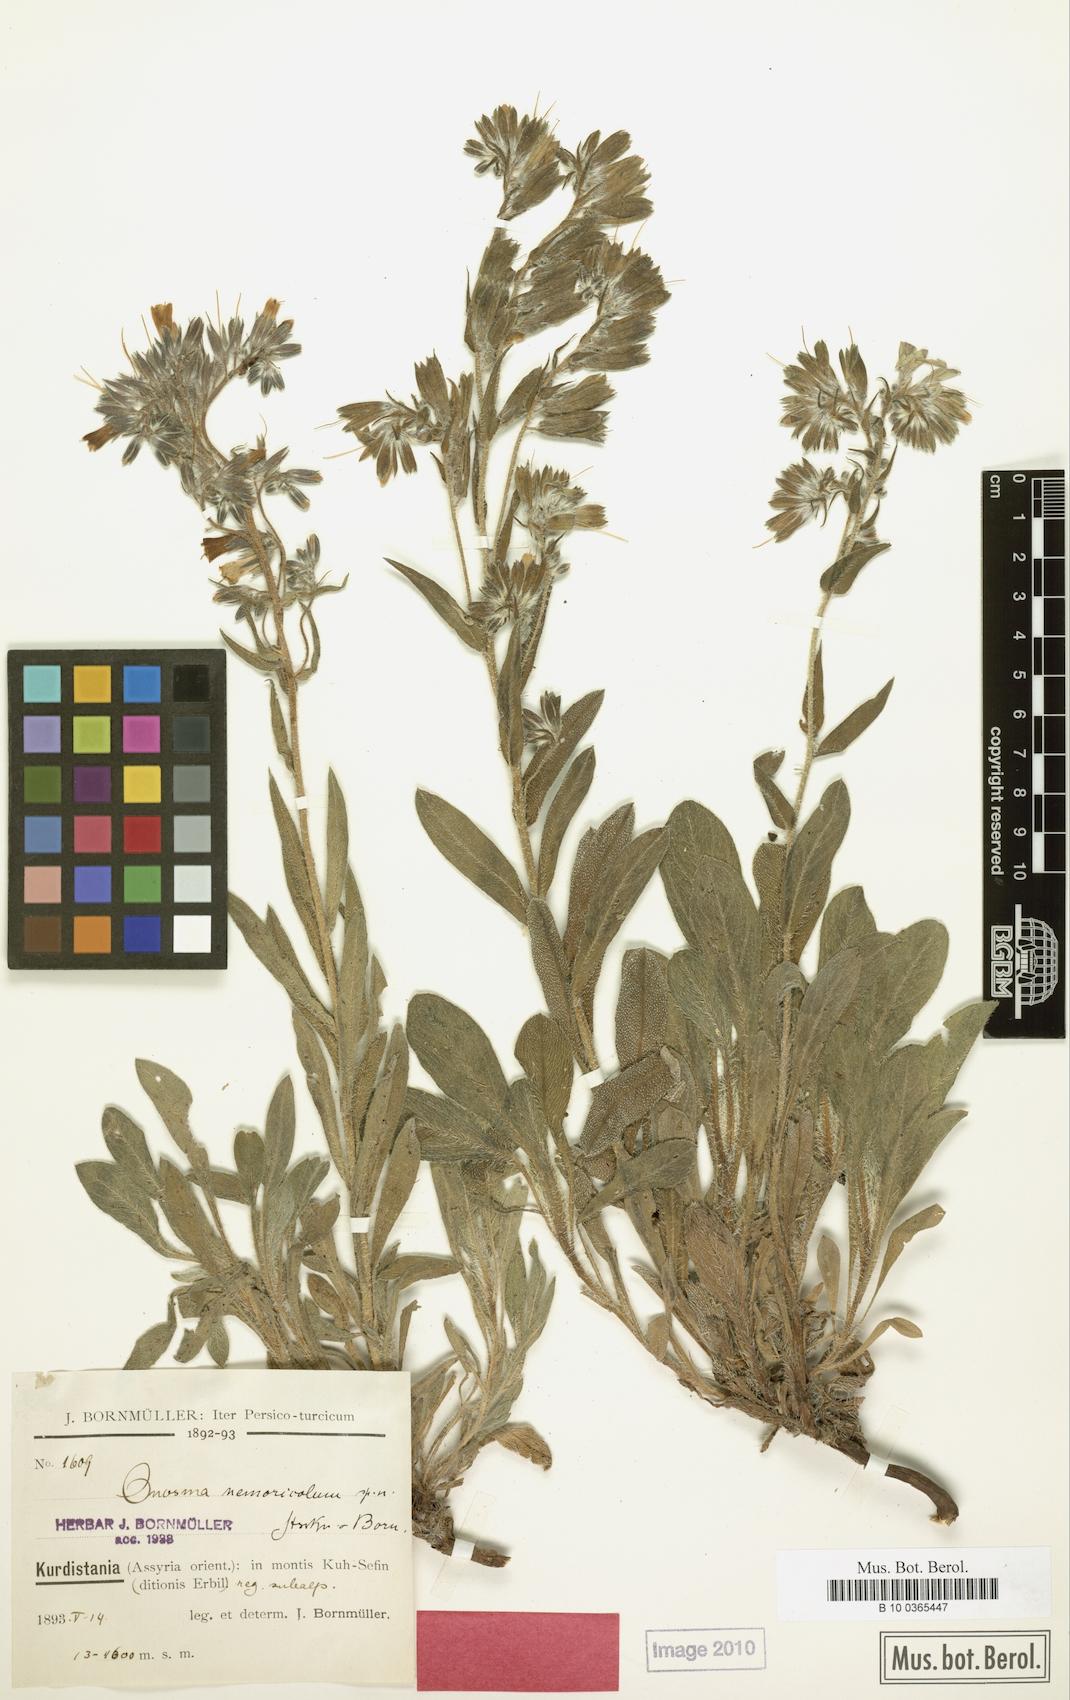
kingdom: Plantae
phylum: Tracheophyta
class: Magnoliopsida
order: Boraginales
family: Boraginaceae
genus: Onosma
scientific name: Onosma nemoricola
